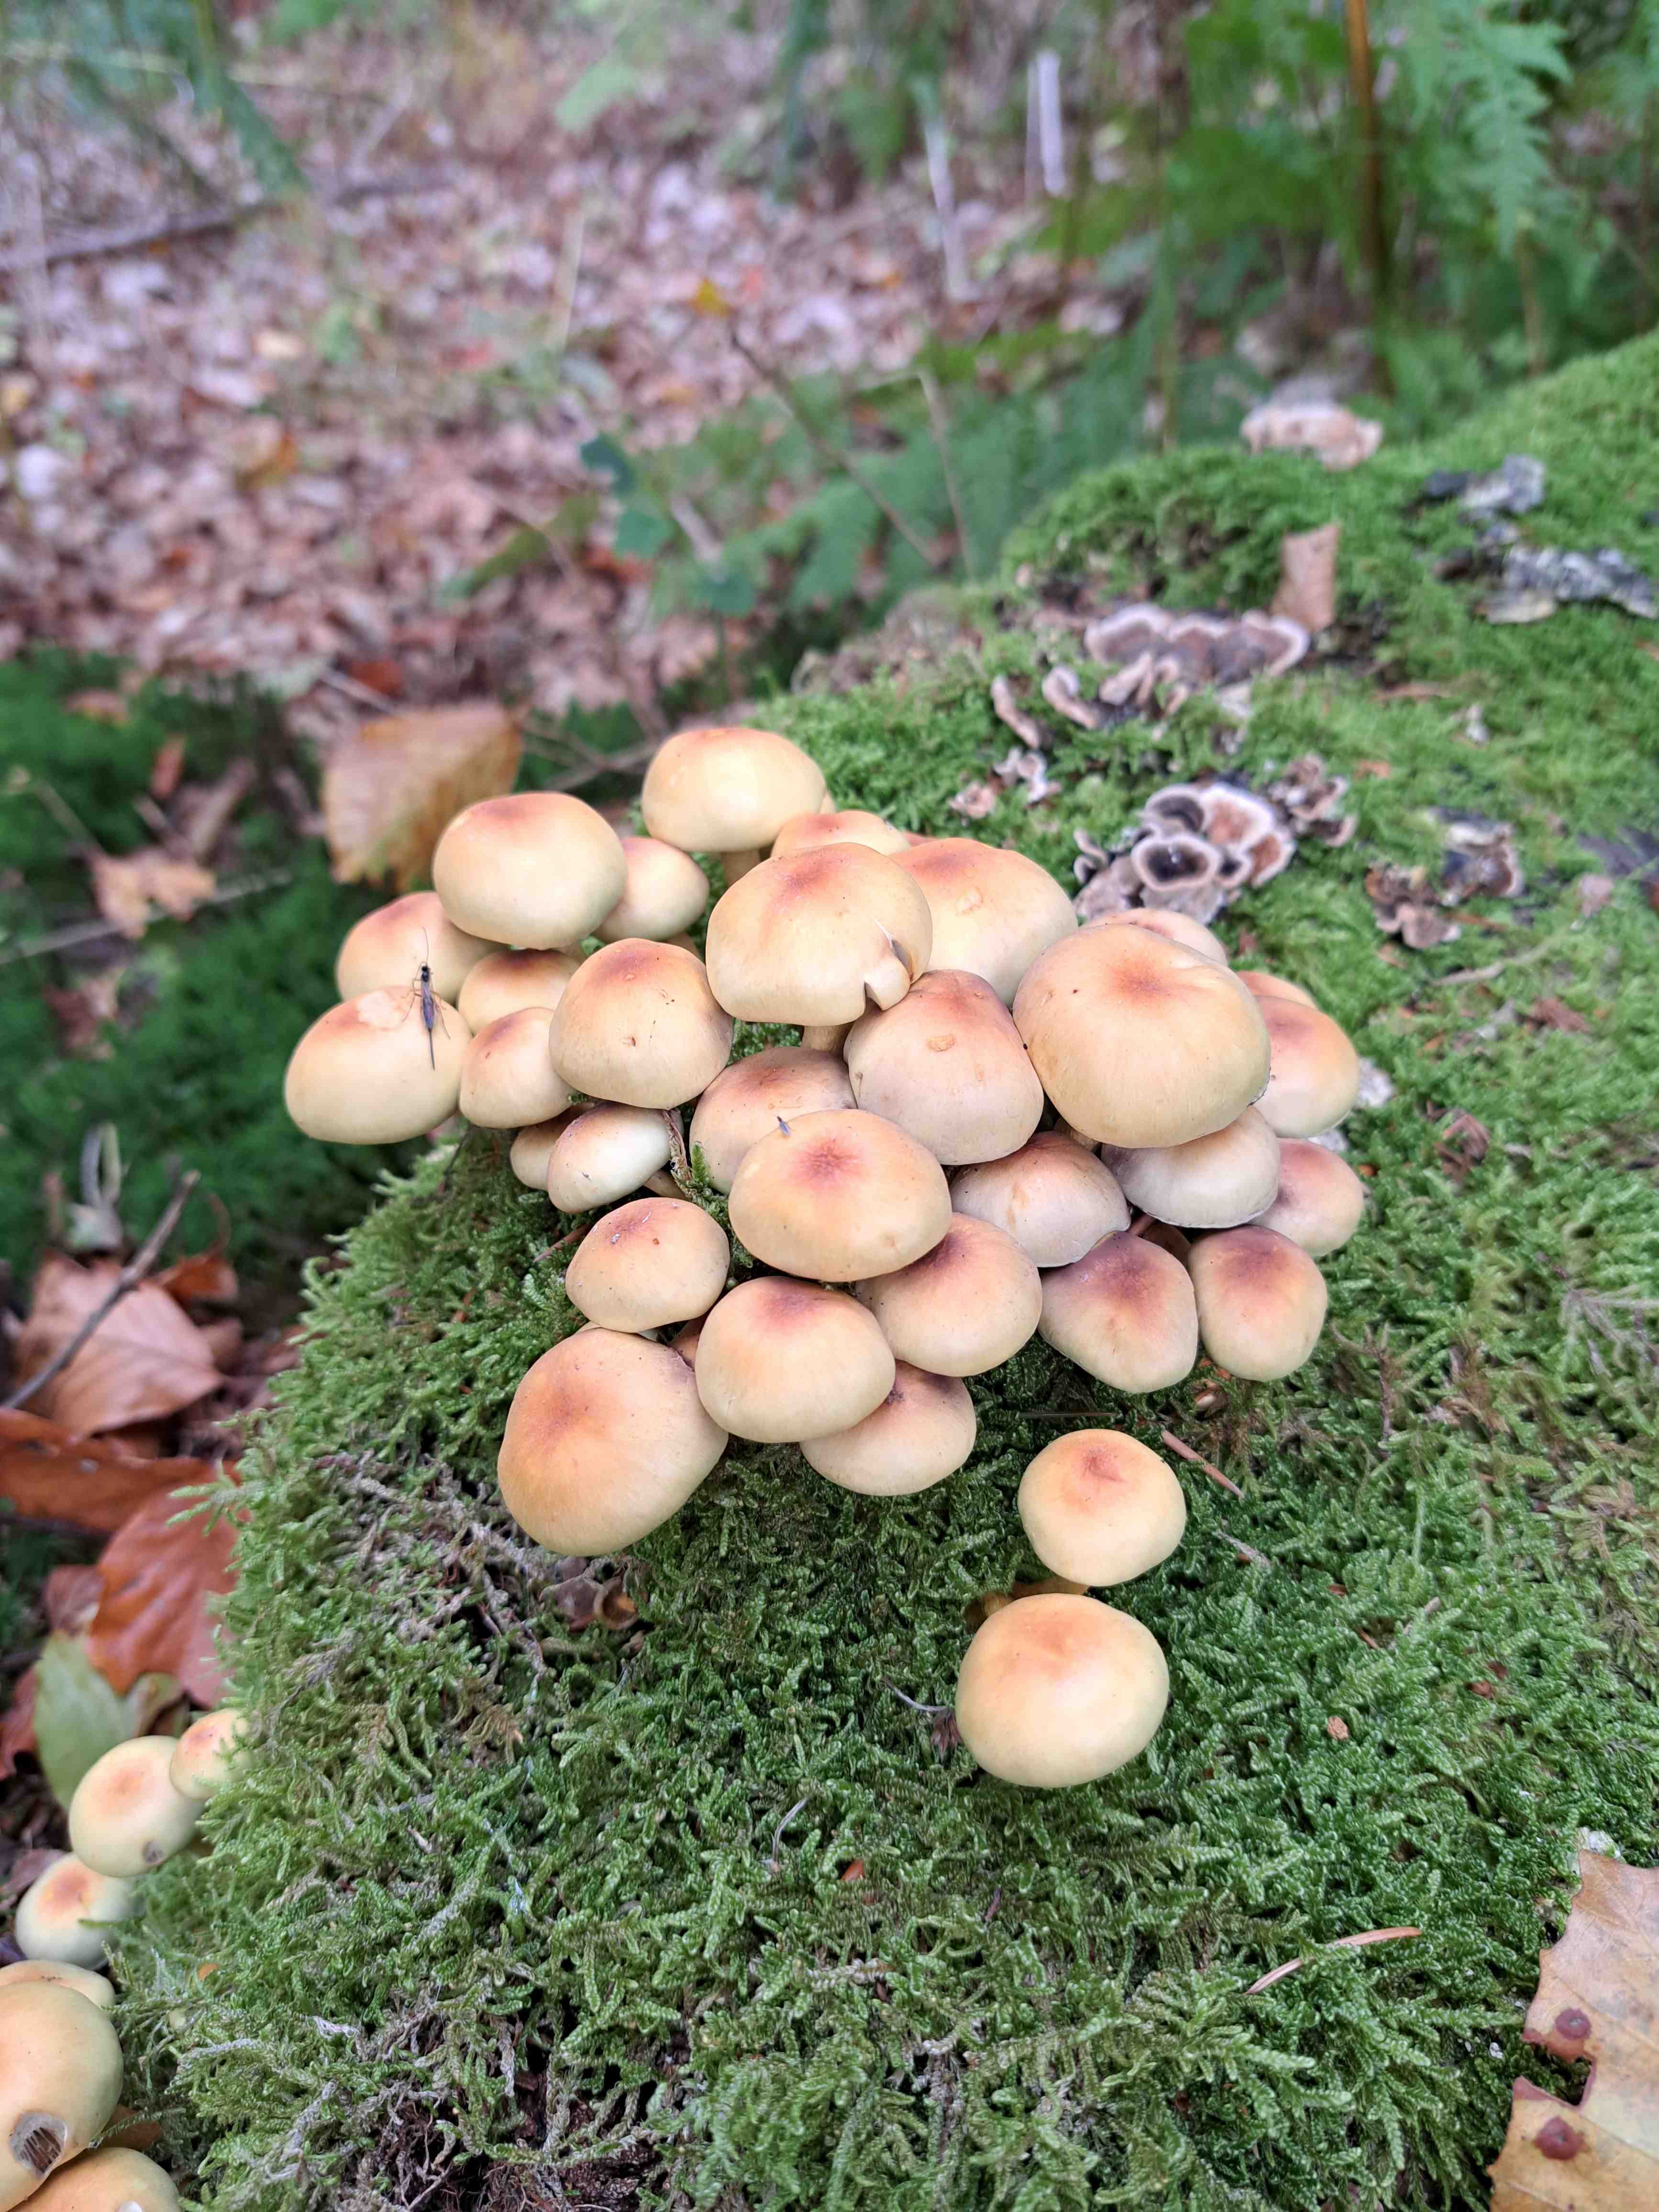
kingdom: Fungi
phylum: Basidiomycota
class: Agaricomycetes
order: Agaricales
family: Strophariaceae
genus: Hypholoma
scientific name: Hypholoma fasciculare
